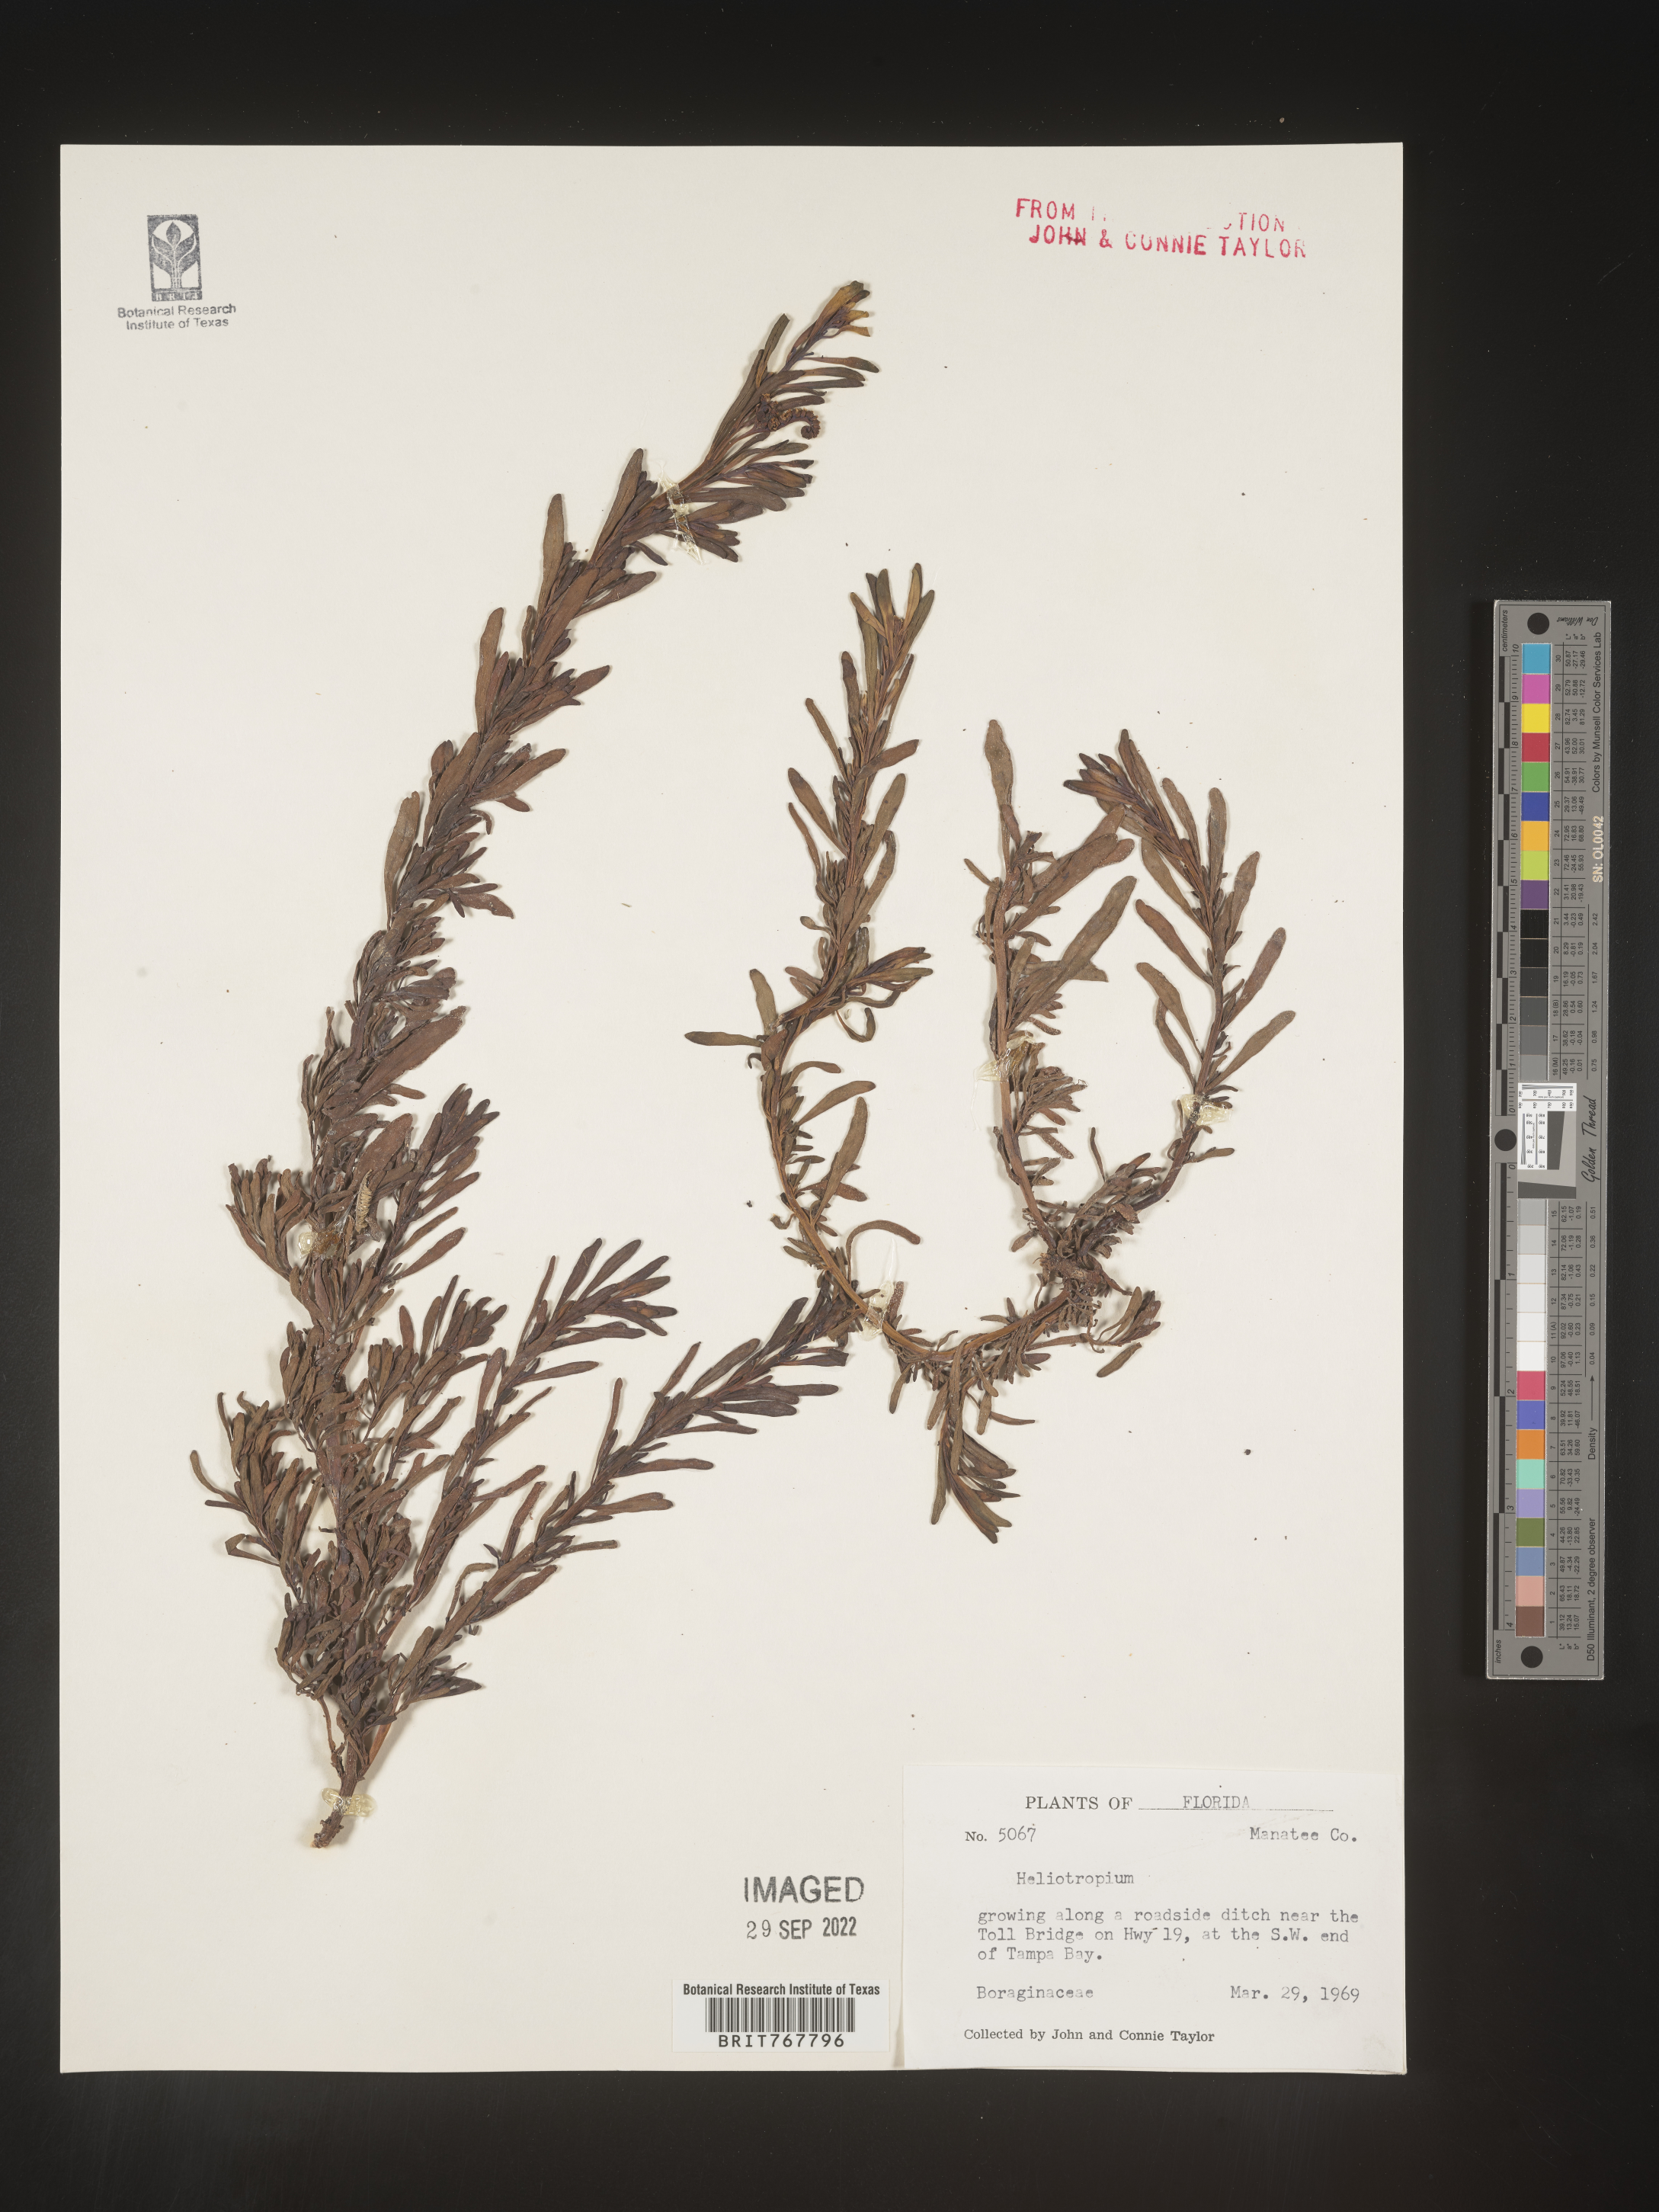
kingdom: Plantae
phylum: Tracheophyta
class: Magnoliopsida
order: Boraginales
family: Heliotropiaceae
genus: Heliotropium
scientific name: Heliotropium
